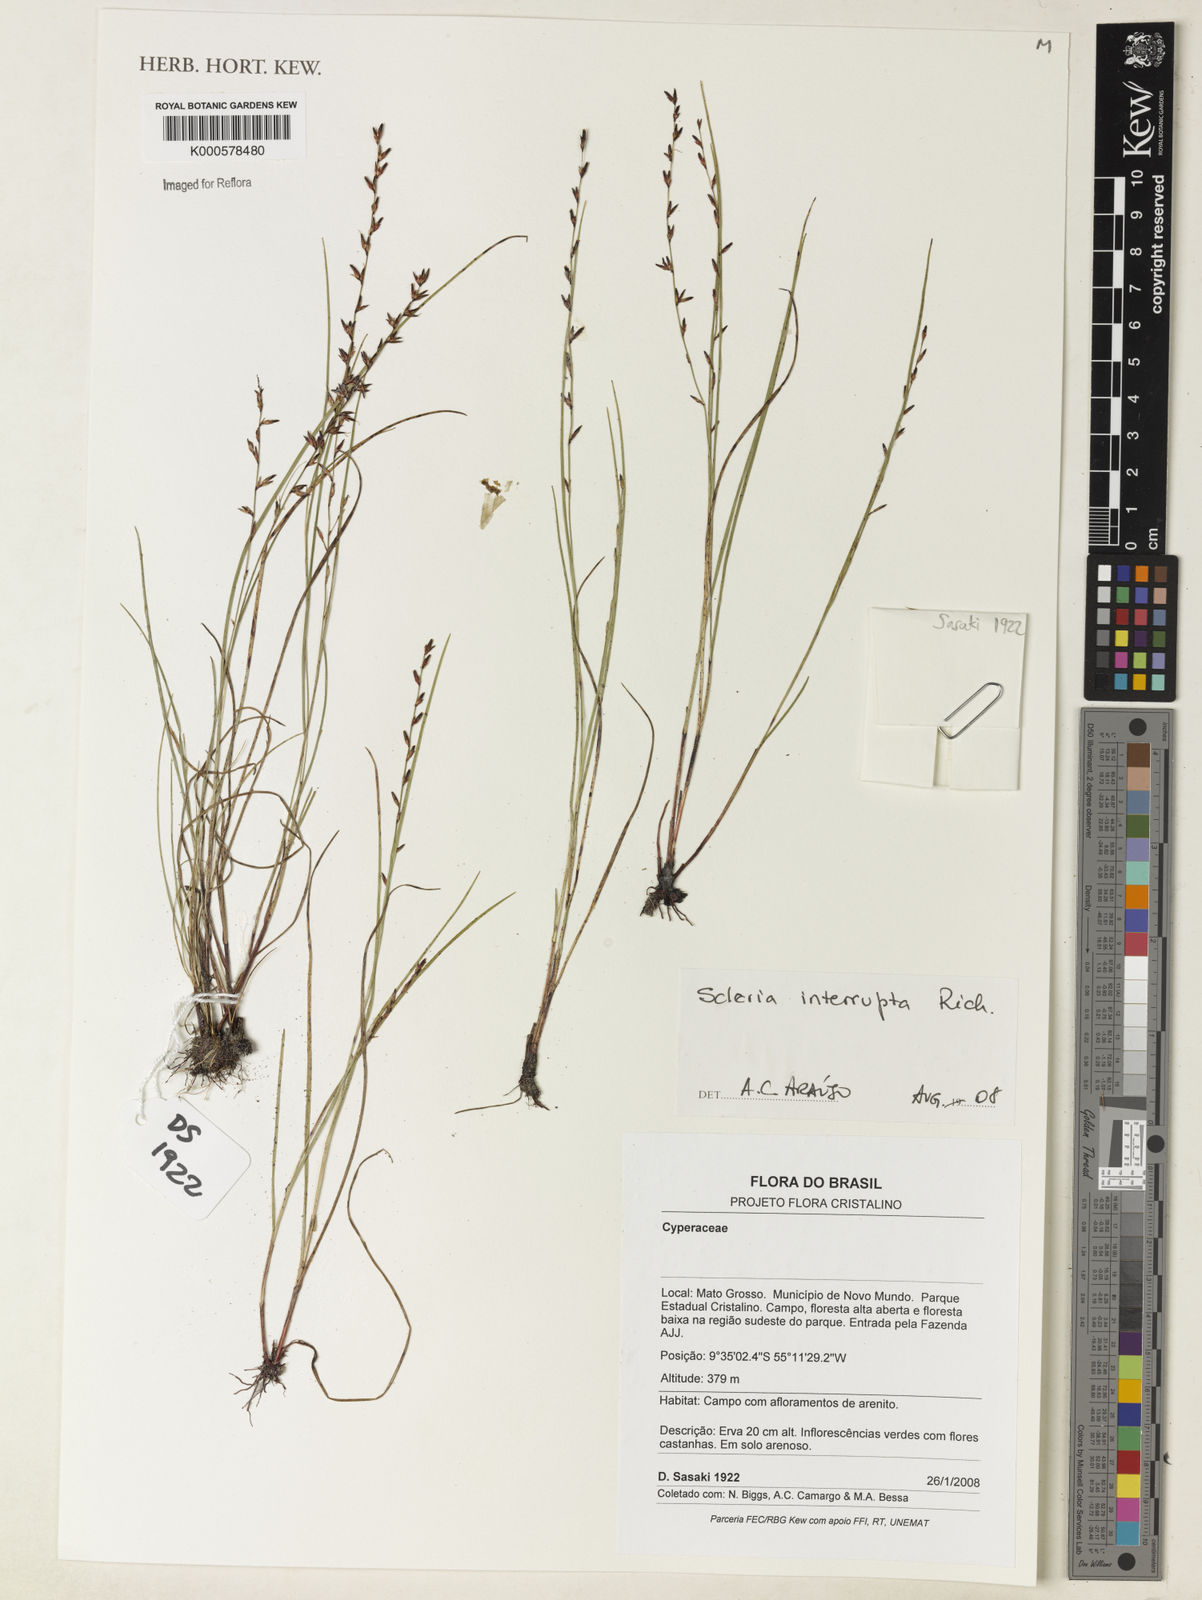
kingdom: Plantae
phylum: Tracheophyta
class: Liliopsida
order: Poales
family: Cyperaceae
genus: Scleria
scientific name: Scleria interrupta
